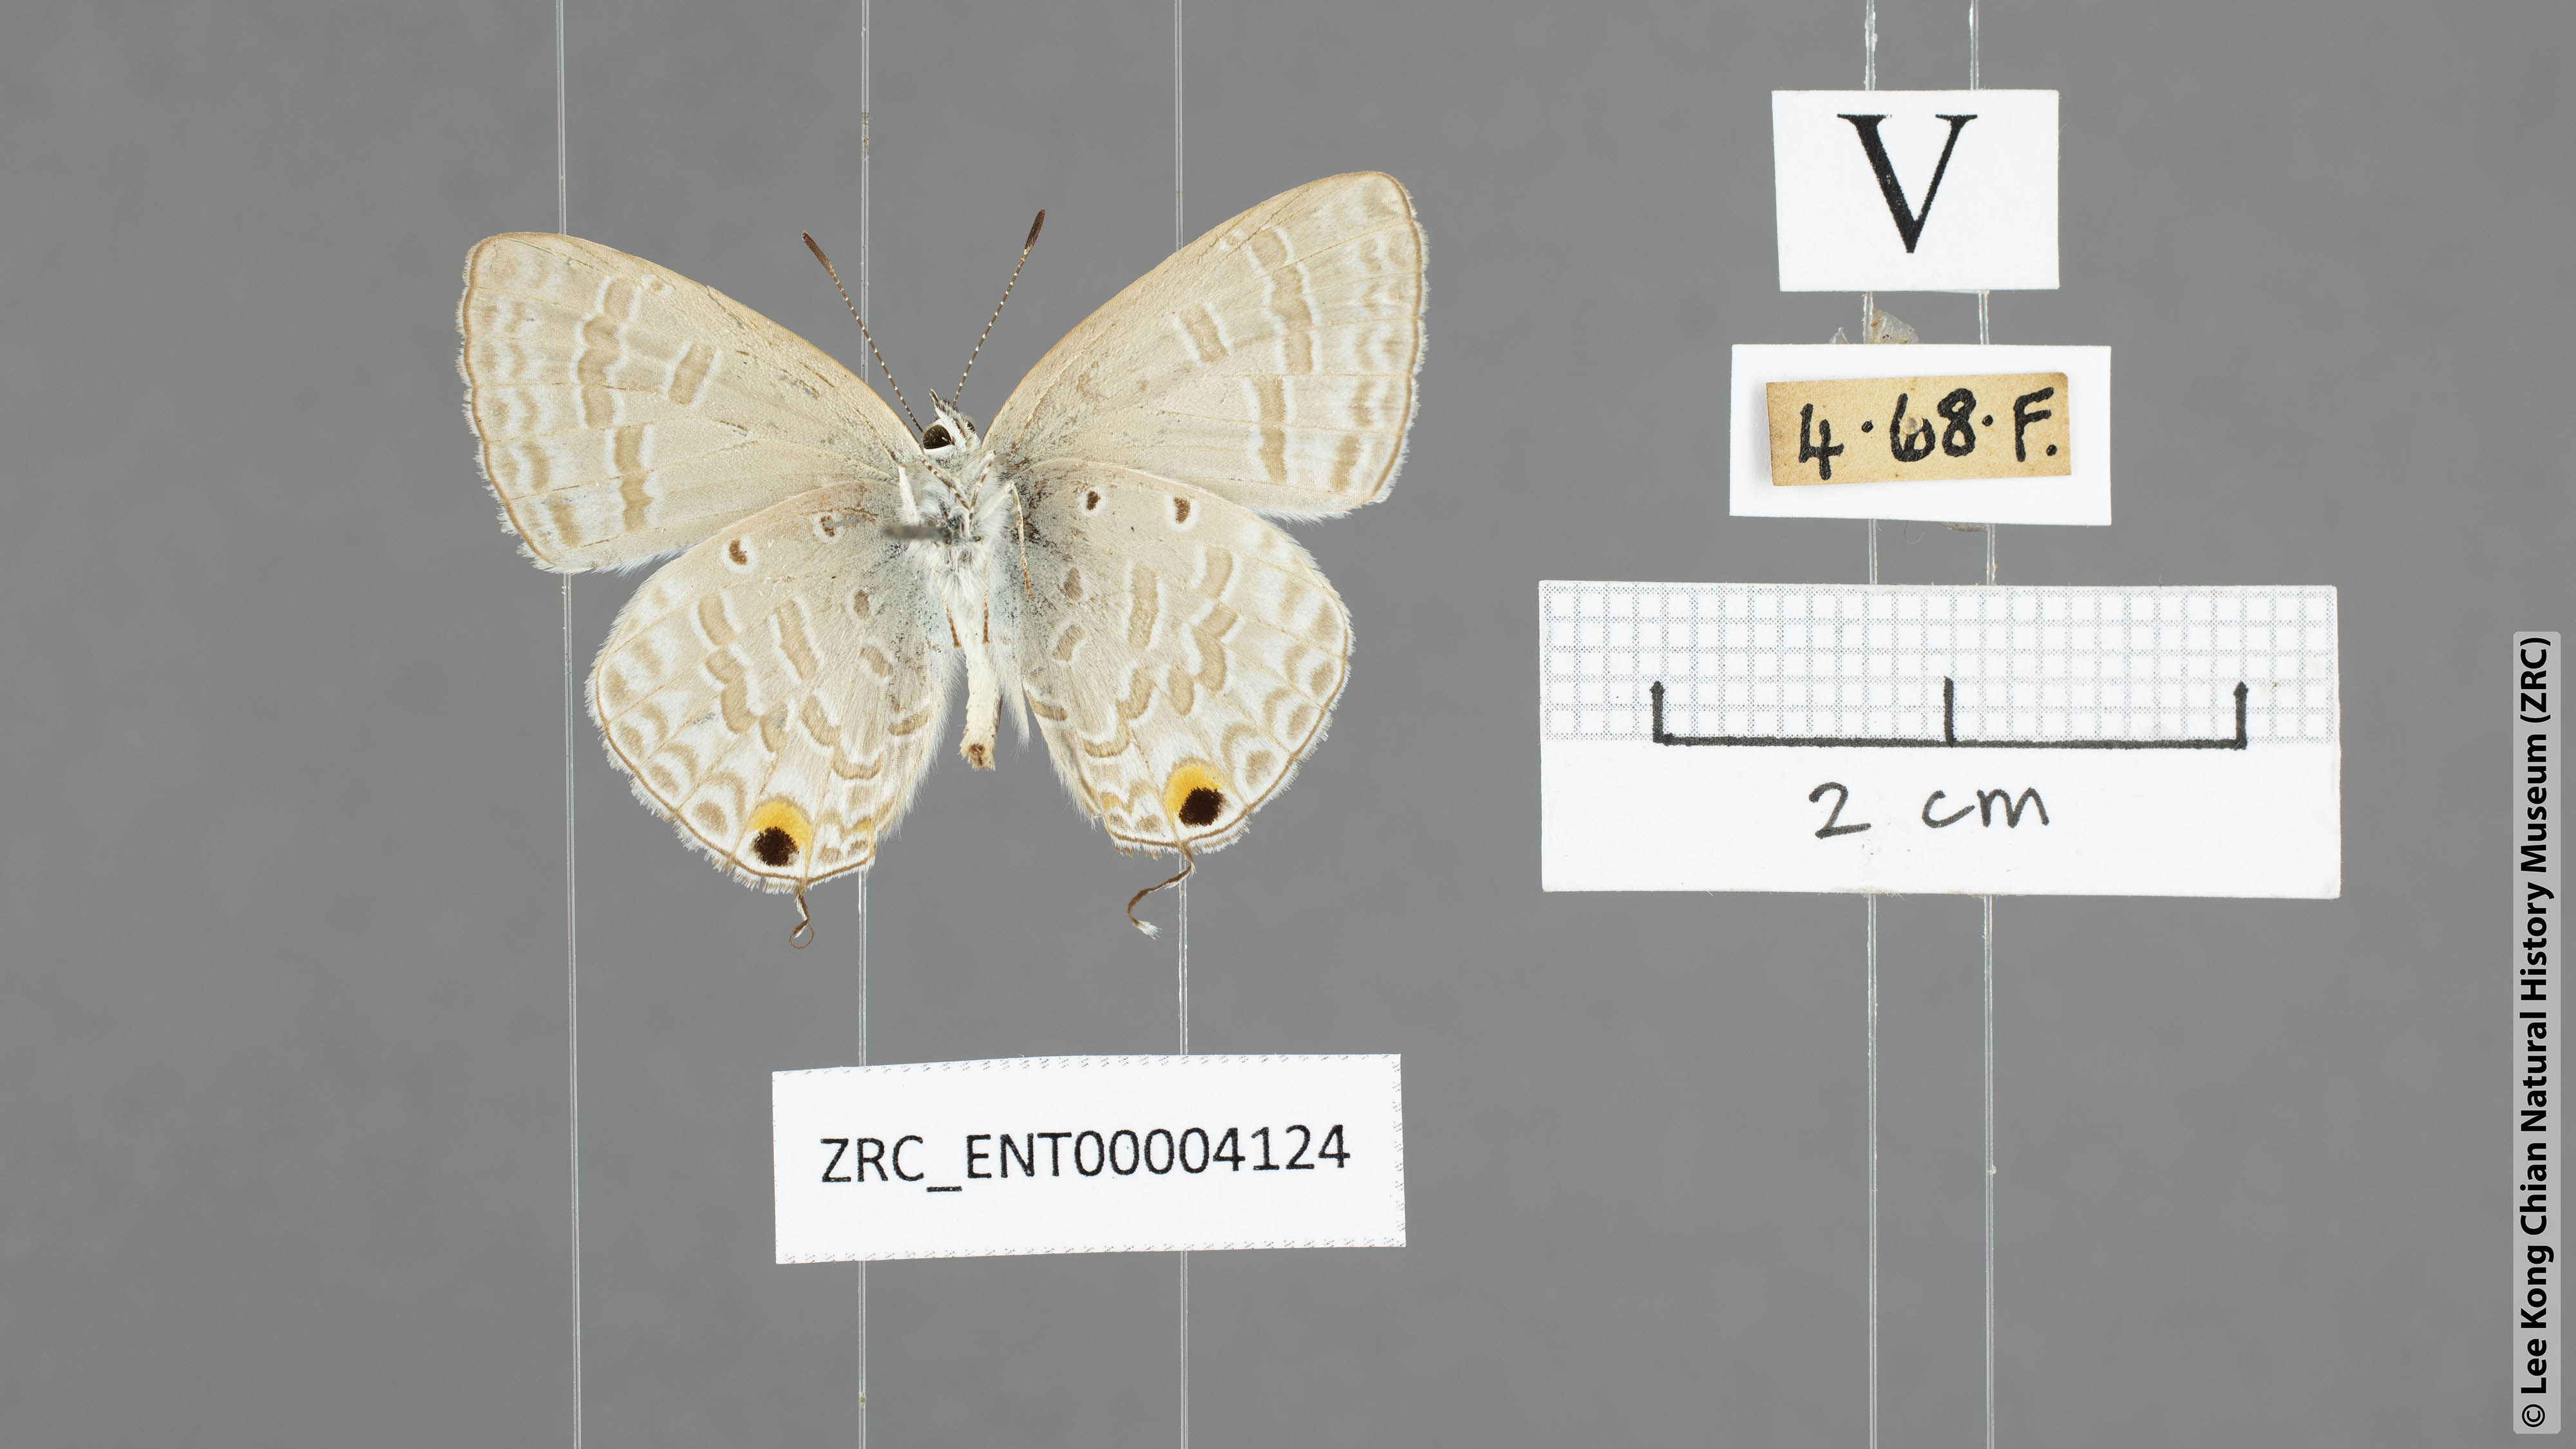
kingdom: Animalia
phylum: Arthropoda
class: Insecta
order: Lepidoptera
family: Lycaenidae
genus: Catochrysops
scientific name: Catochrysops panormus
